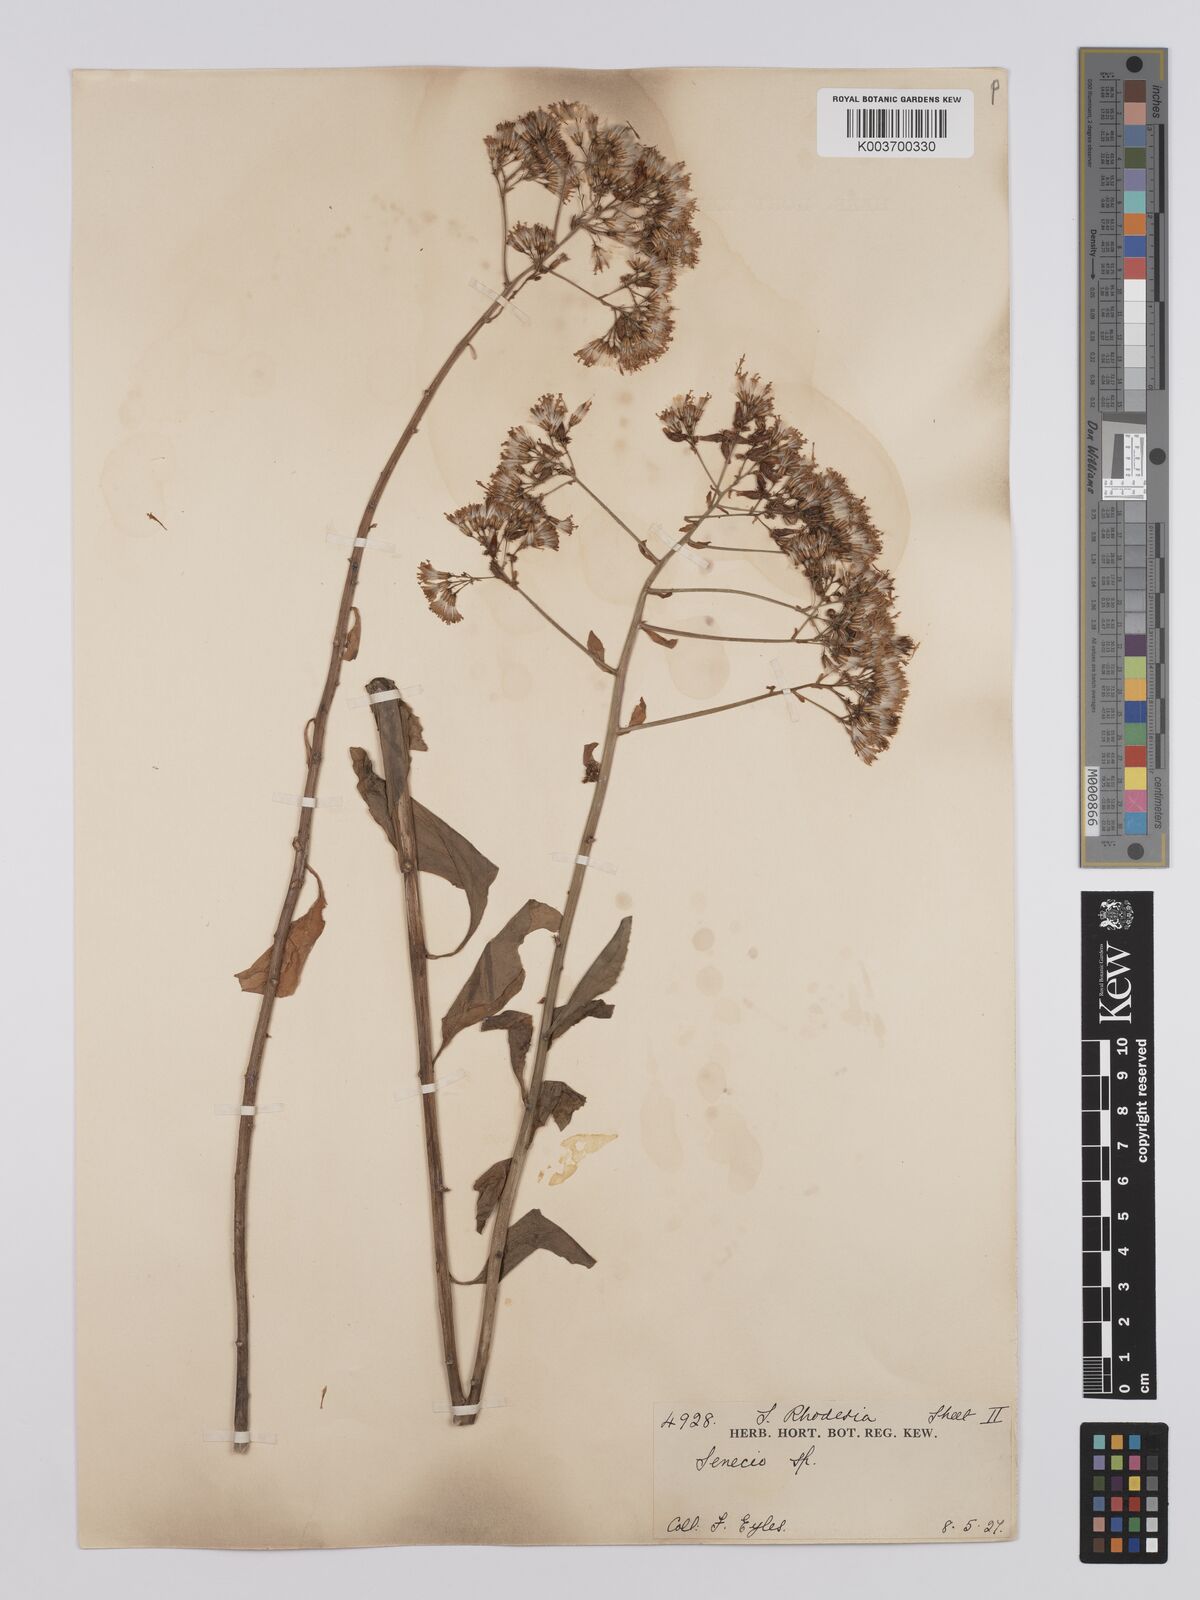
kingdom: Plantae
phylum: Tracheophyta
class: Magnoliopsida
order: Asterales
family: Asteraceae
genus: Senecio
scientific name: Senecio brachypodus
